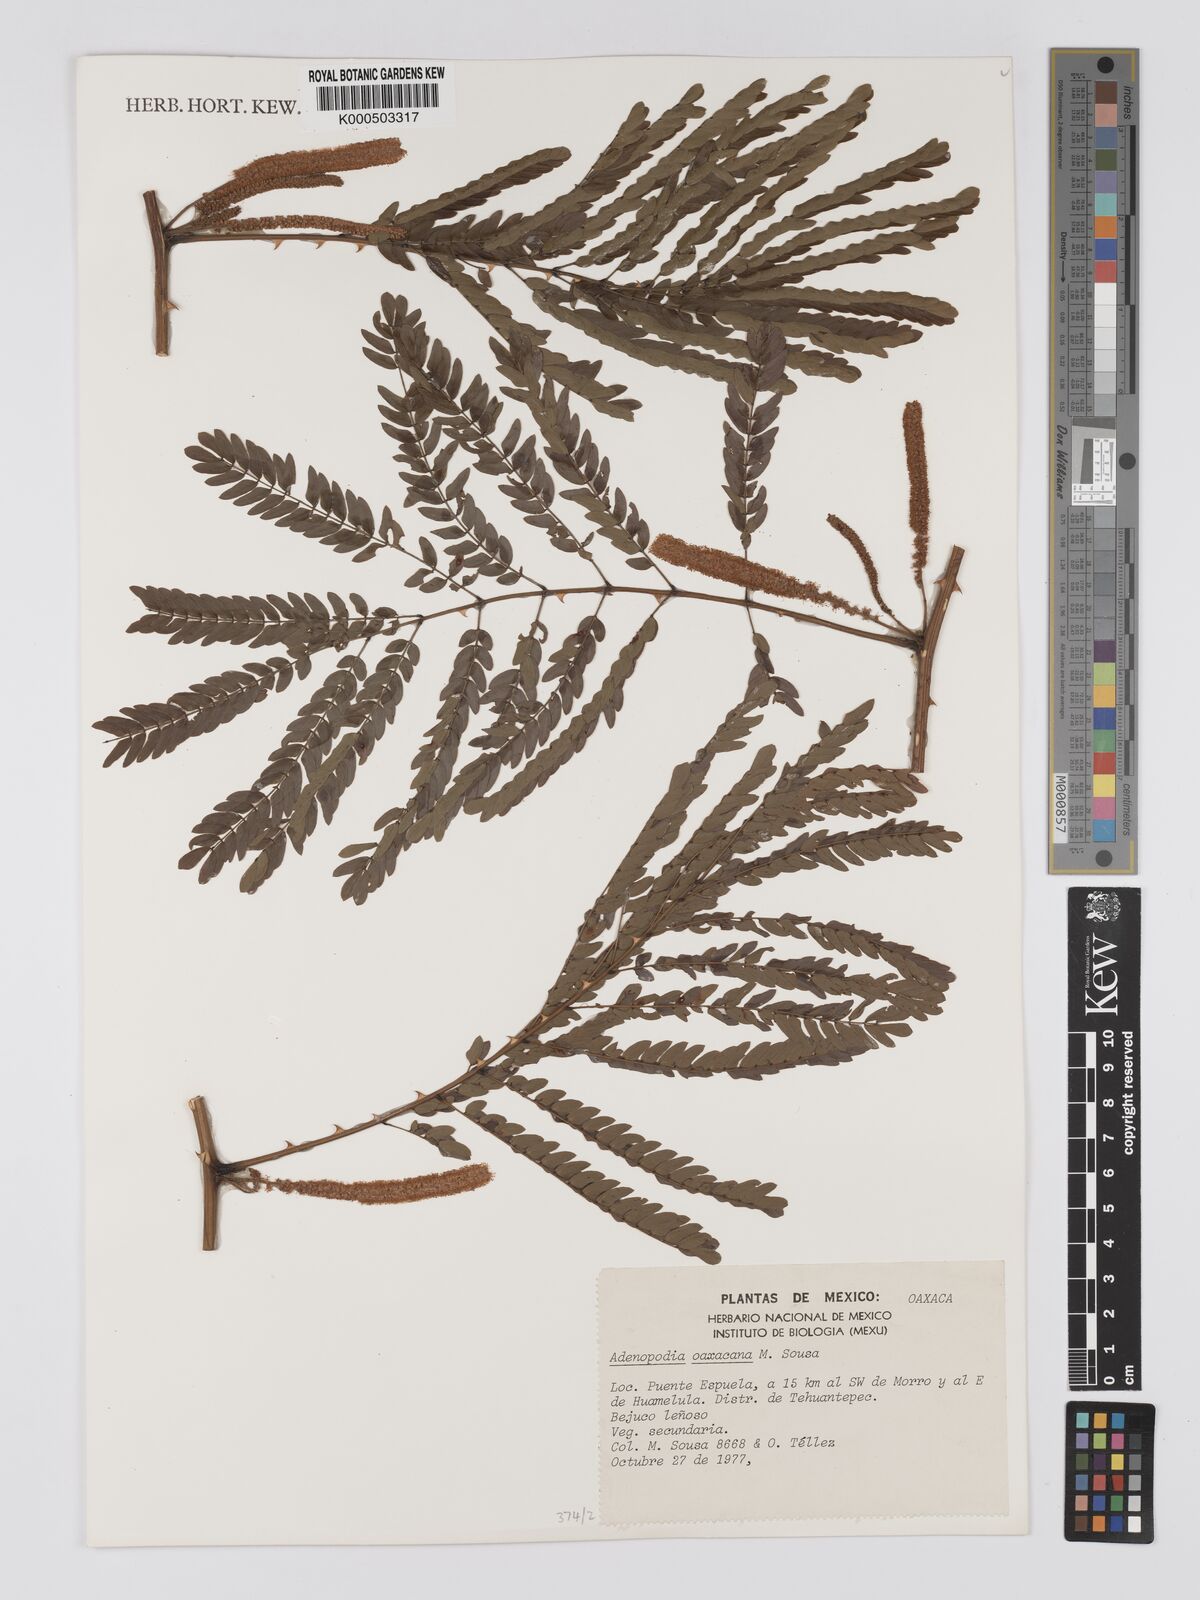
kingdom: Plantae
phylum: Tracheophyta
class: Magnoliopsida
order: Fabales
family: Fabaceae
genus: Adenopodia
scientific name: Adenopodia oaxacana
